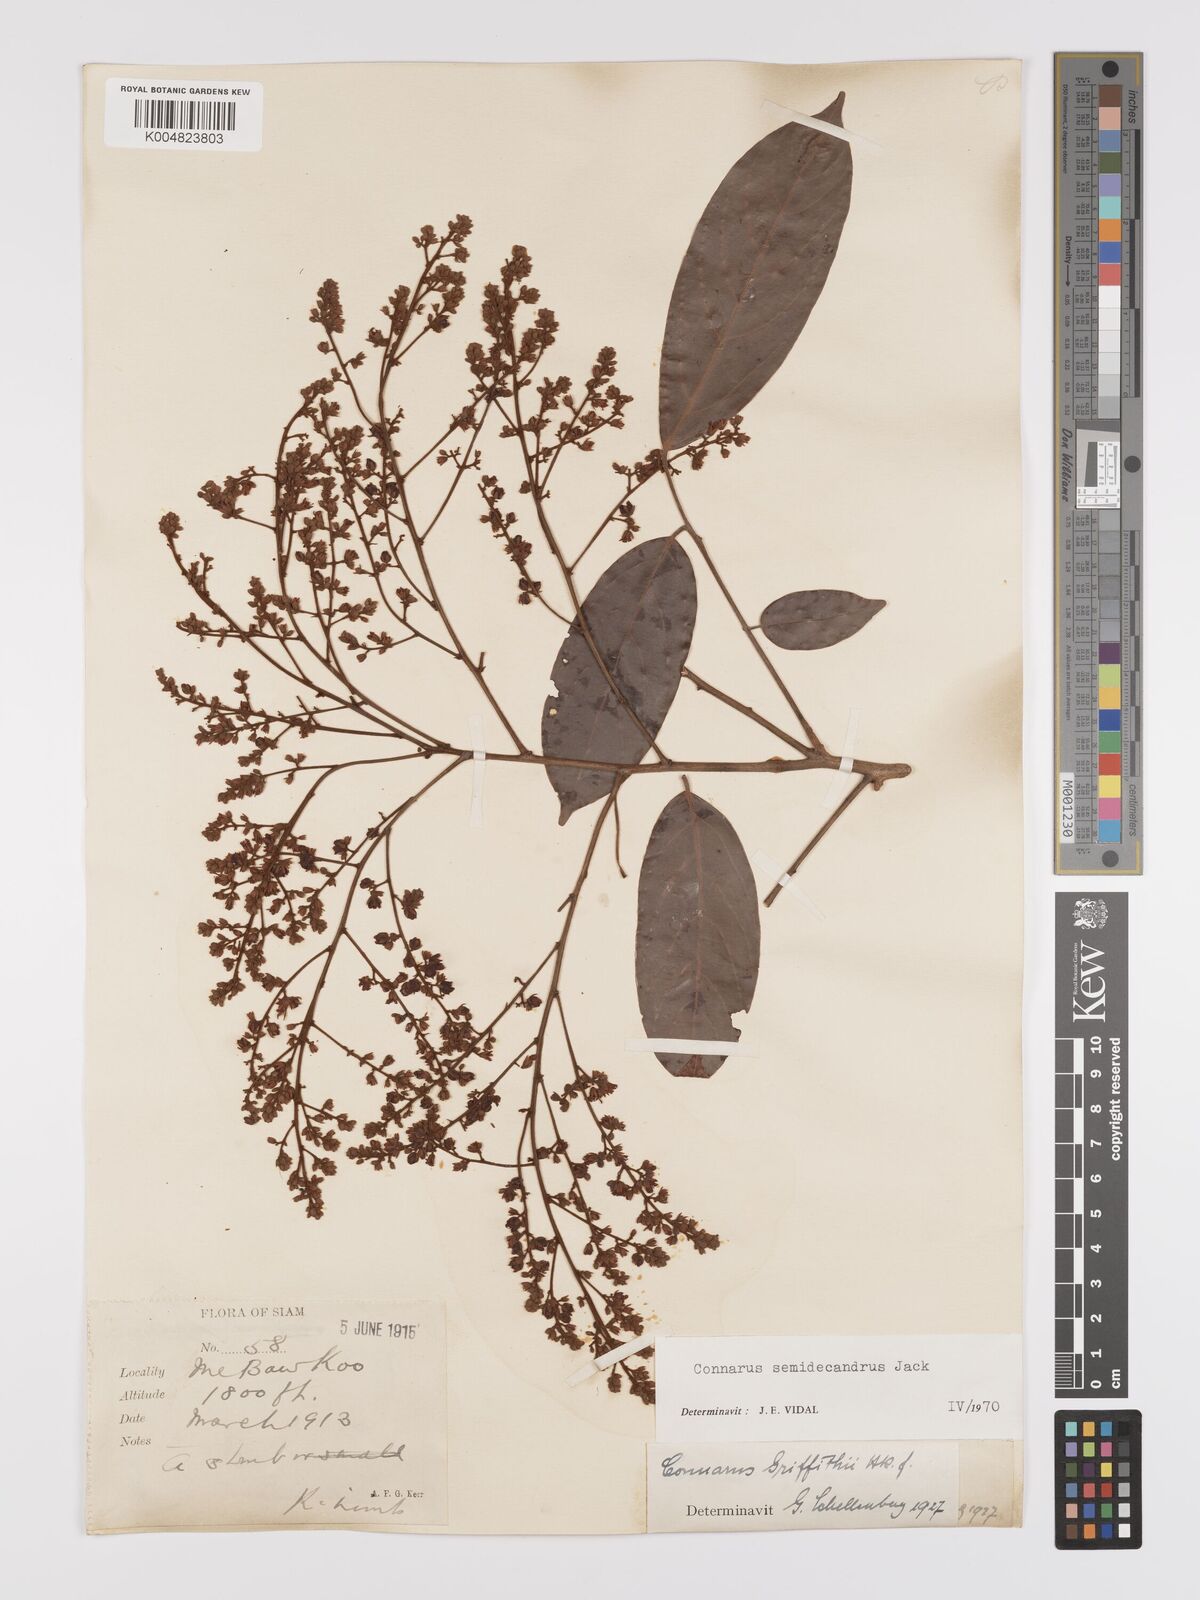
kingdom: Plantae
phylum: Tracheophyta
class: Magnoliopsida
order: Oxalidales
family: Connaraceae
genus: Connarus
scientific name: Connarus semidecandrus
